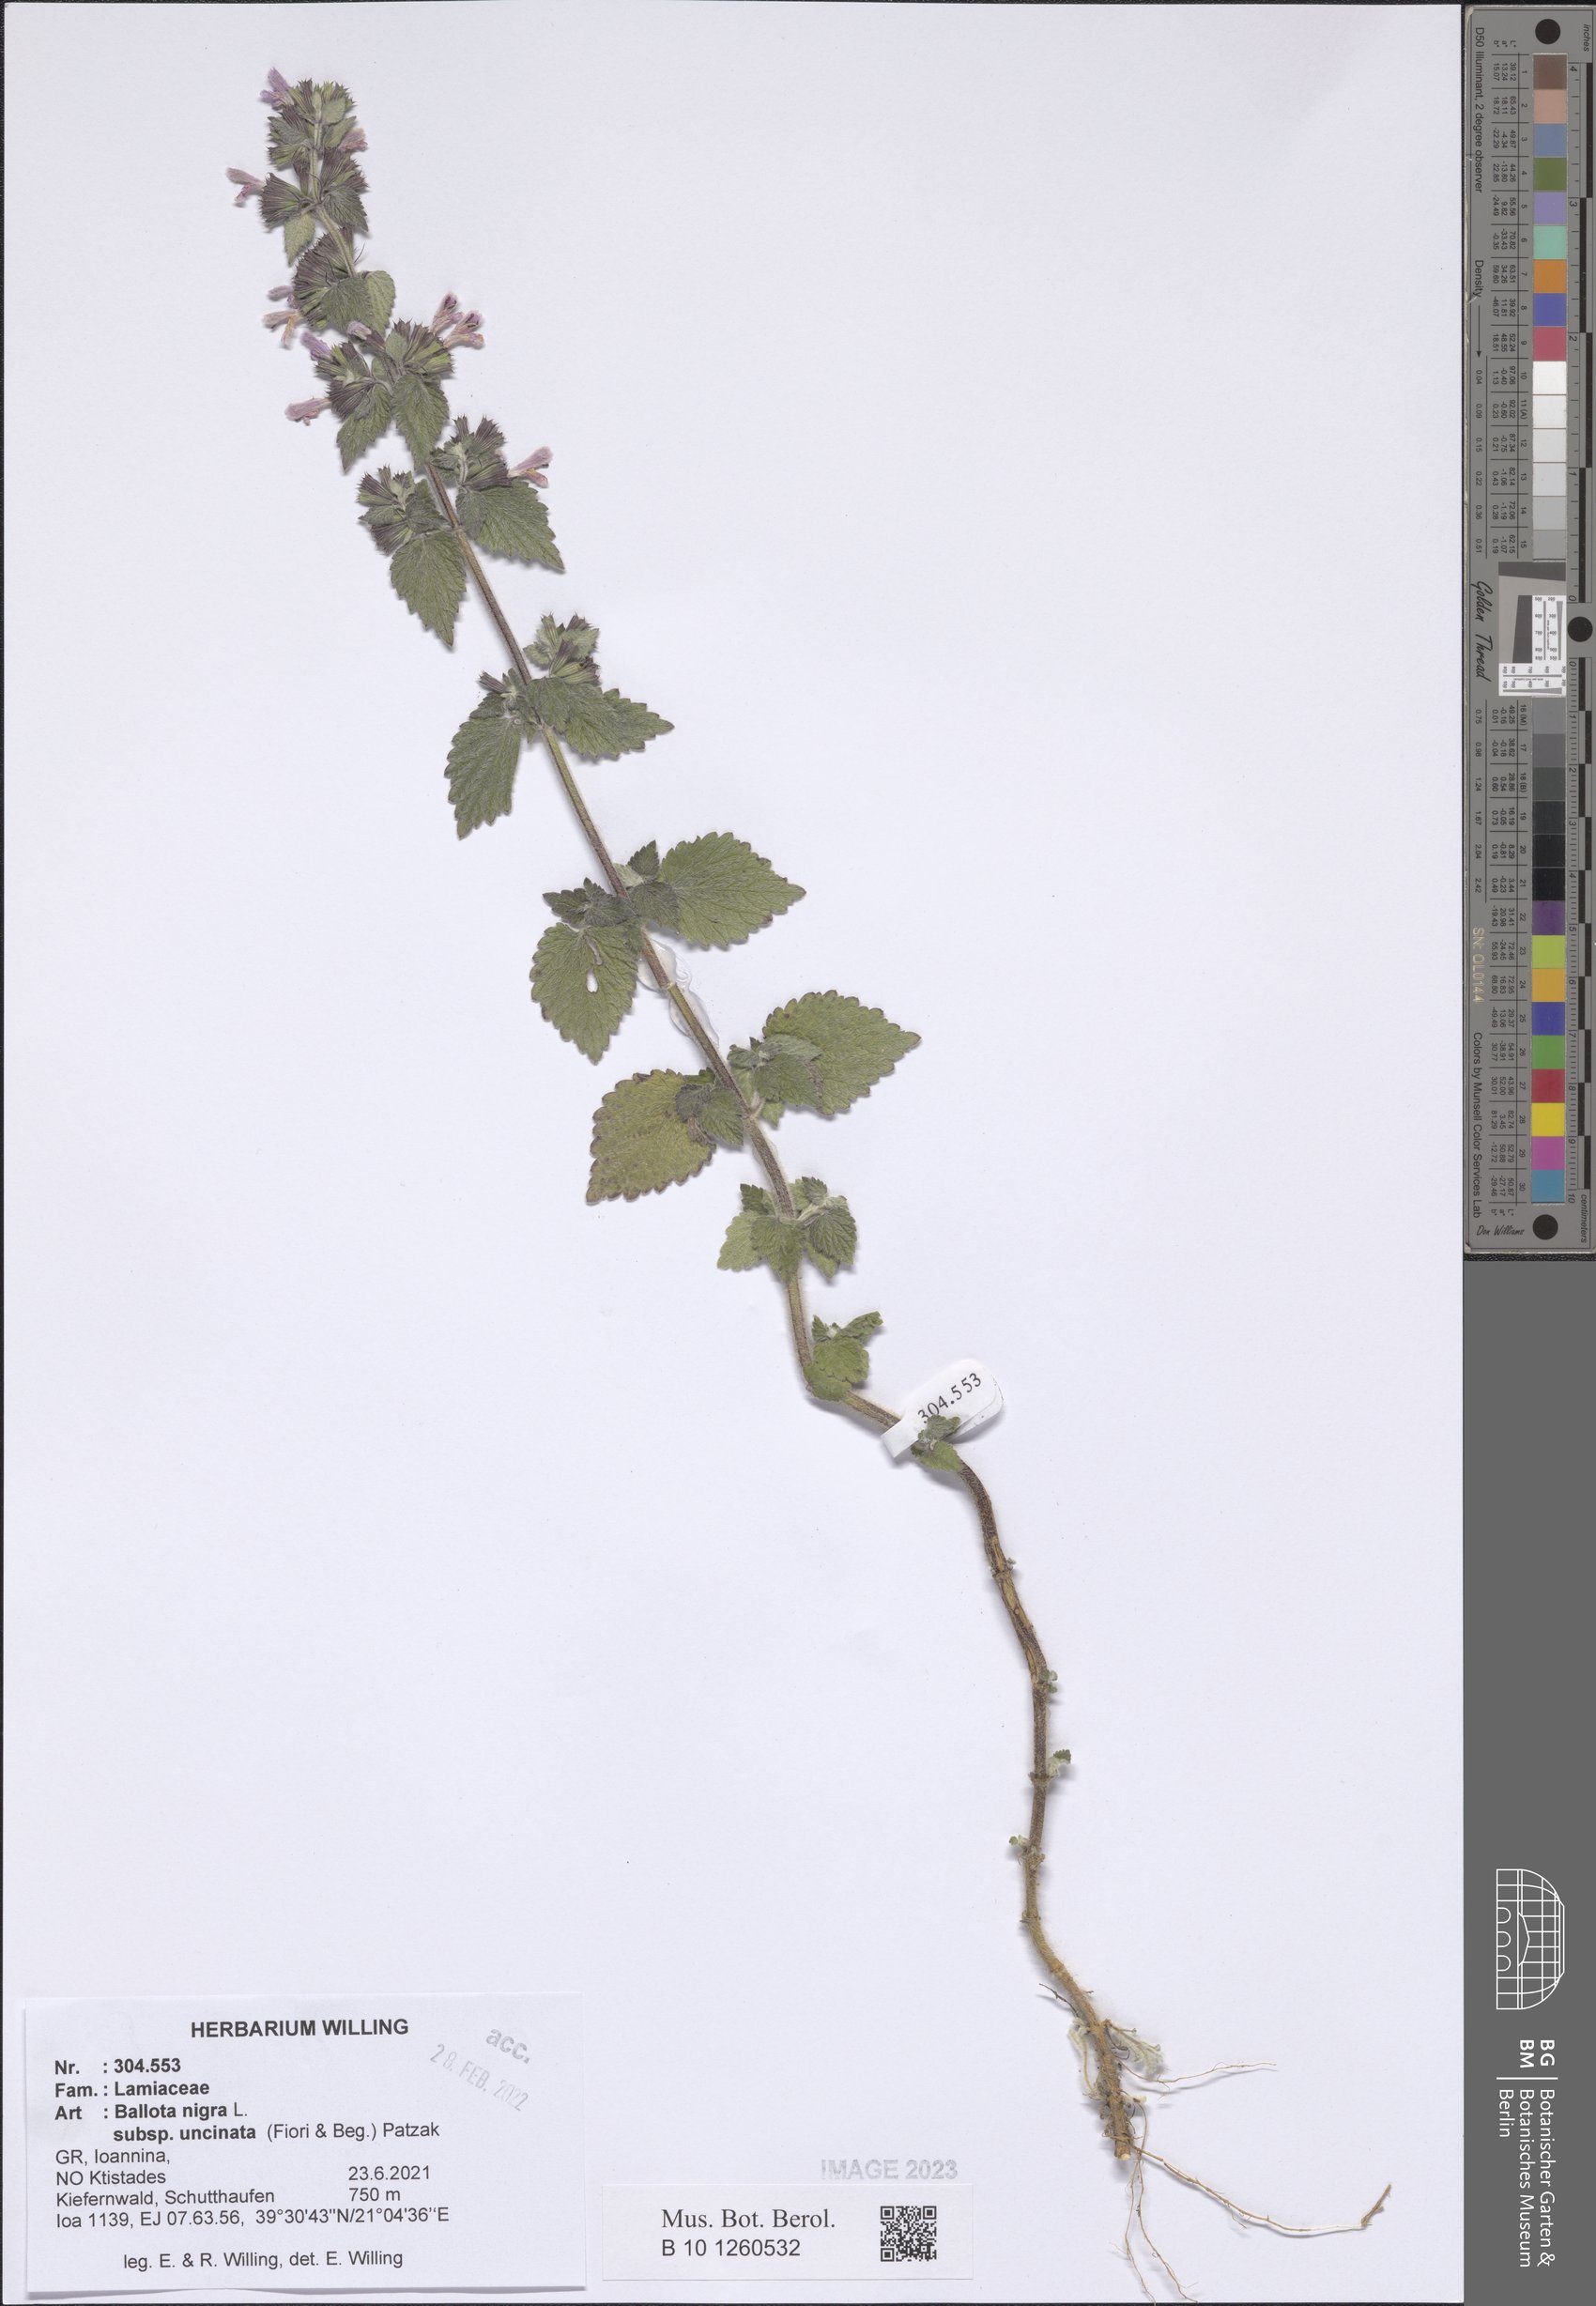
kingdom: Plantae
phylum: Tracheophyta
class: Magnoliopsida
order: Lamiales
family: Lamiaceae
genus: Ballota
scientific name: Ballota nigra
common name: Black horehound
